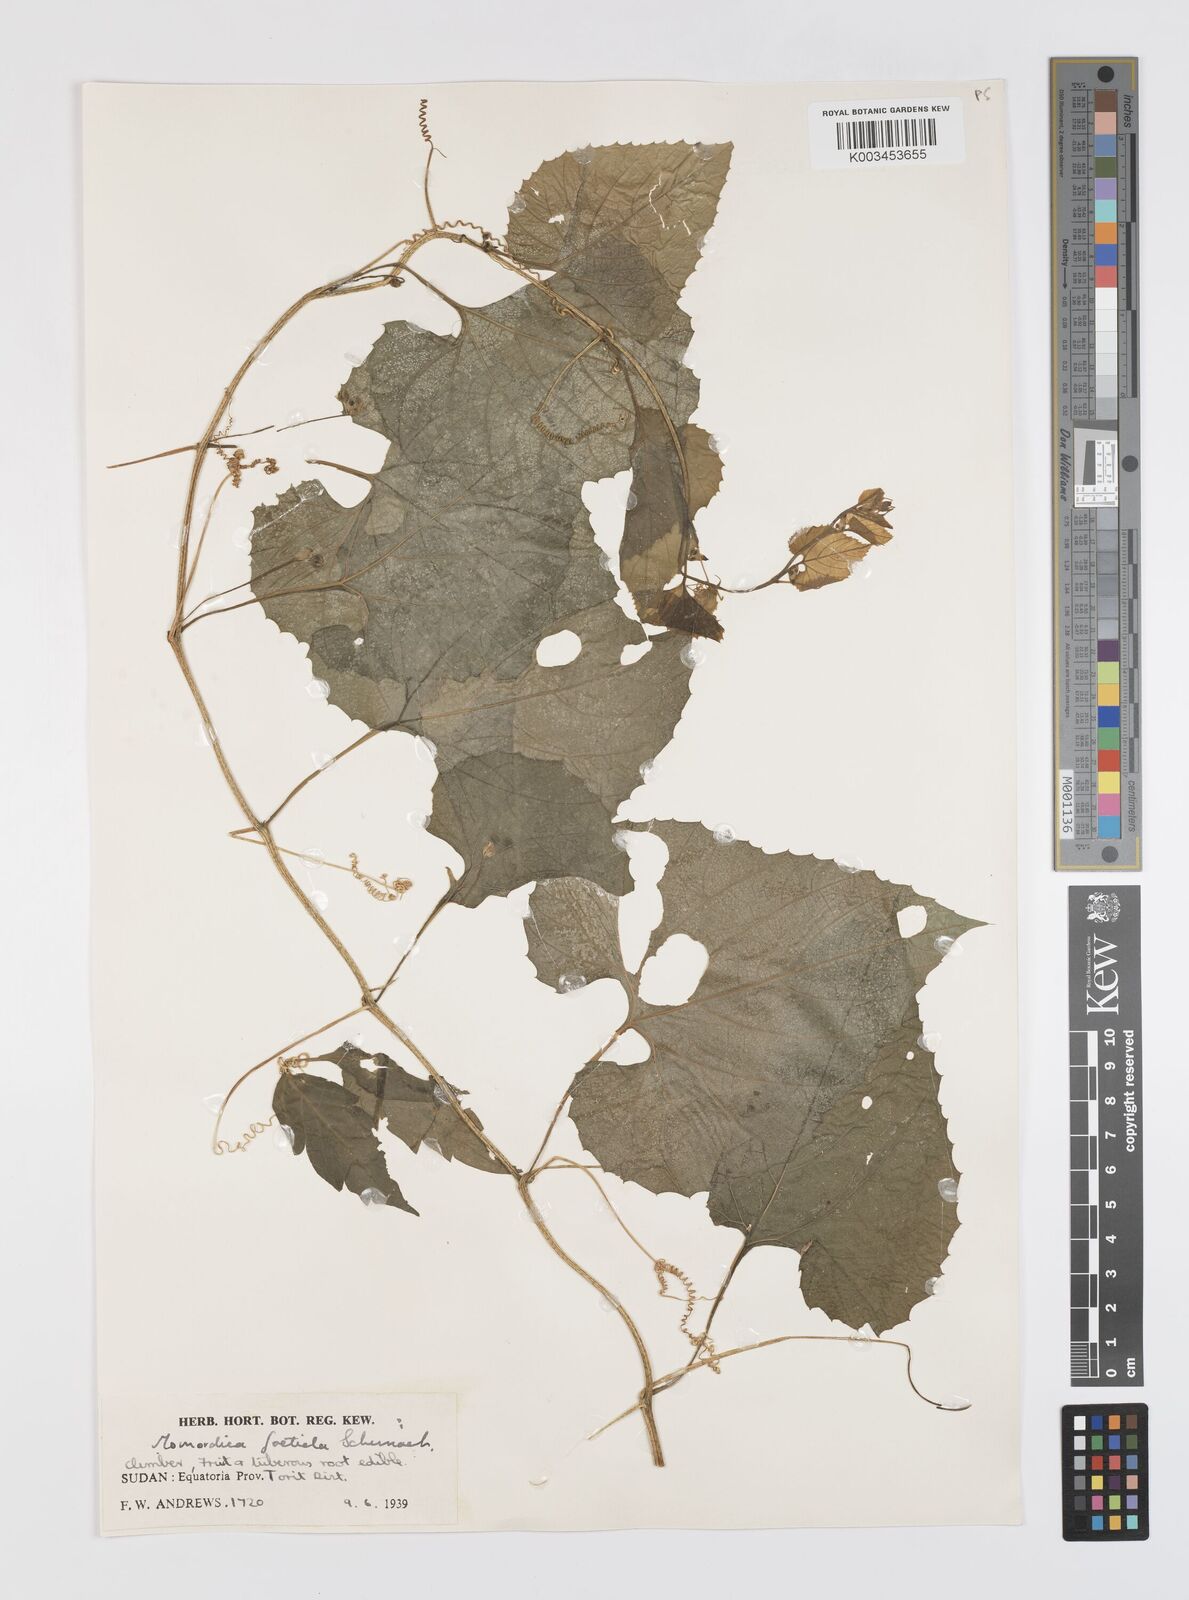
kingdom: Plantae
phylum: Tracheophyta
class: Magnoliopsida
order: Cucurbitales
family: Cucurbitaceae
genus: Momordica
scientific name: Momordica foetida
